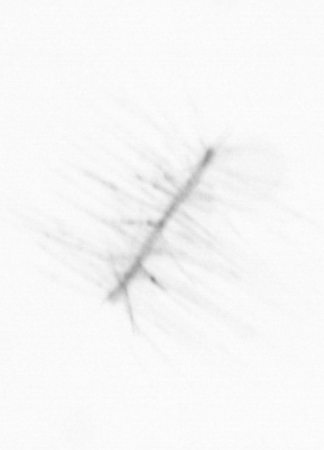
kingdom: Chromista
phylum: Ochrophyta
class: Bacillariophyceae
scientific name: Bacillariophyceae
